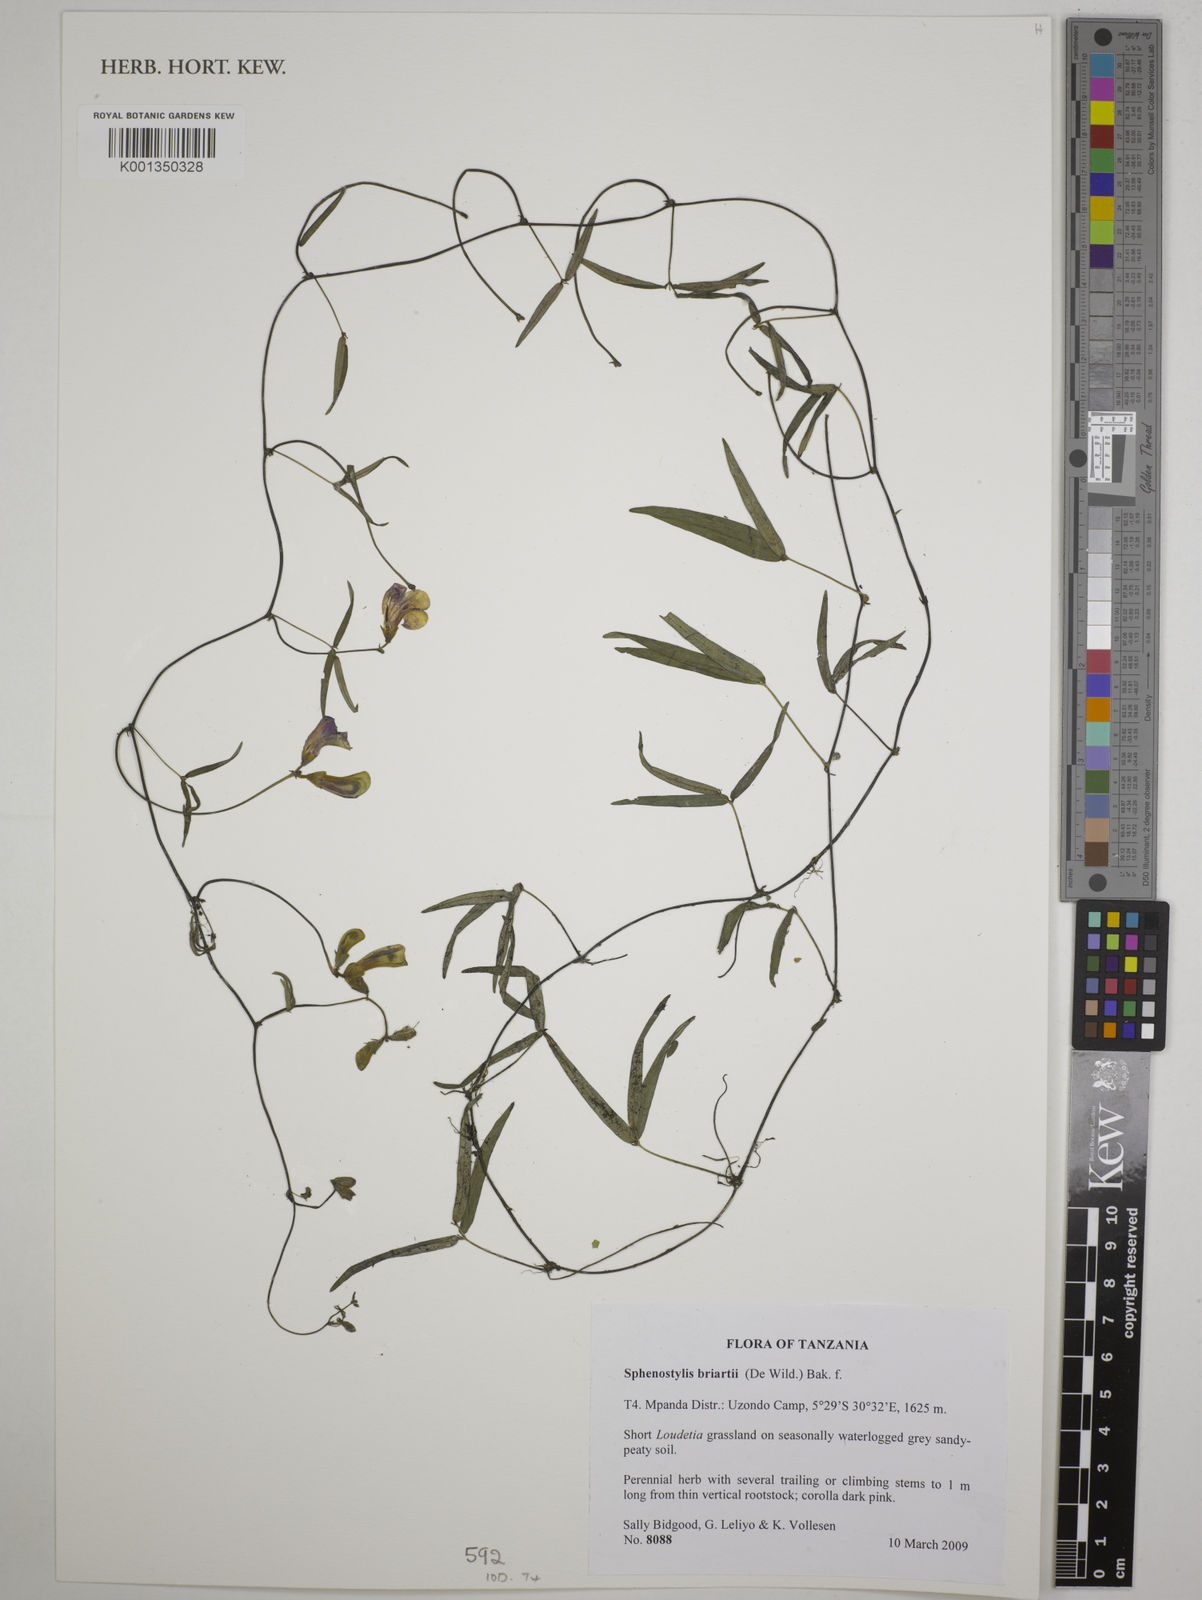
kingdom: Plantae
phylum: Tracheophyta
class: Magnoliopsida
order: Fabales
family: Fabaceae
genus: Sphenostylis
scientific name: Sphenostylis briartii
